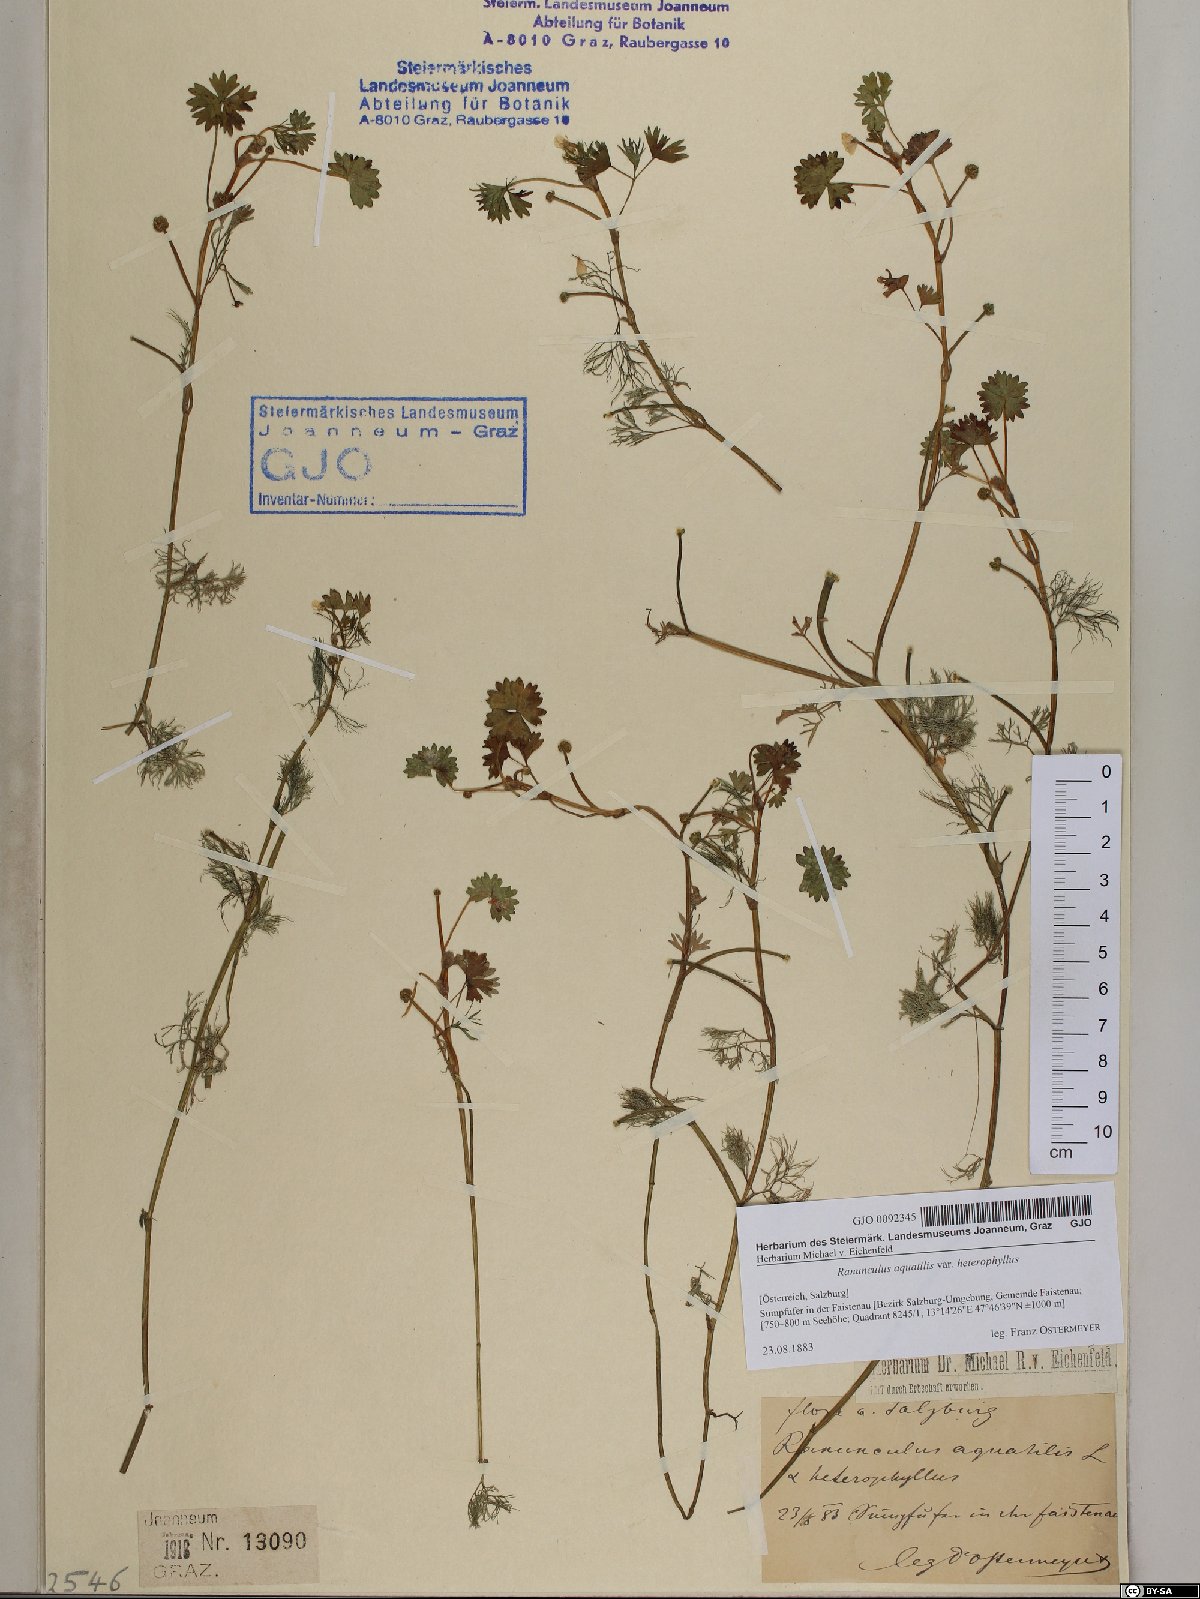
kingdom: Plantae
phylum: Tracheophyta
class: Magnoliopsida
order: Ranunculales
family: Ranunculaceae
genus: Ranunculus
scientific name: Ranunculus aquatilis
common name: Common water-crowfoot
